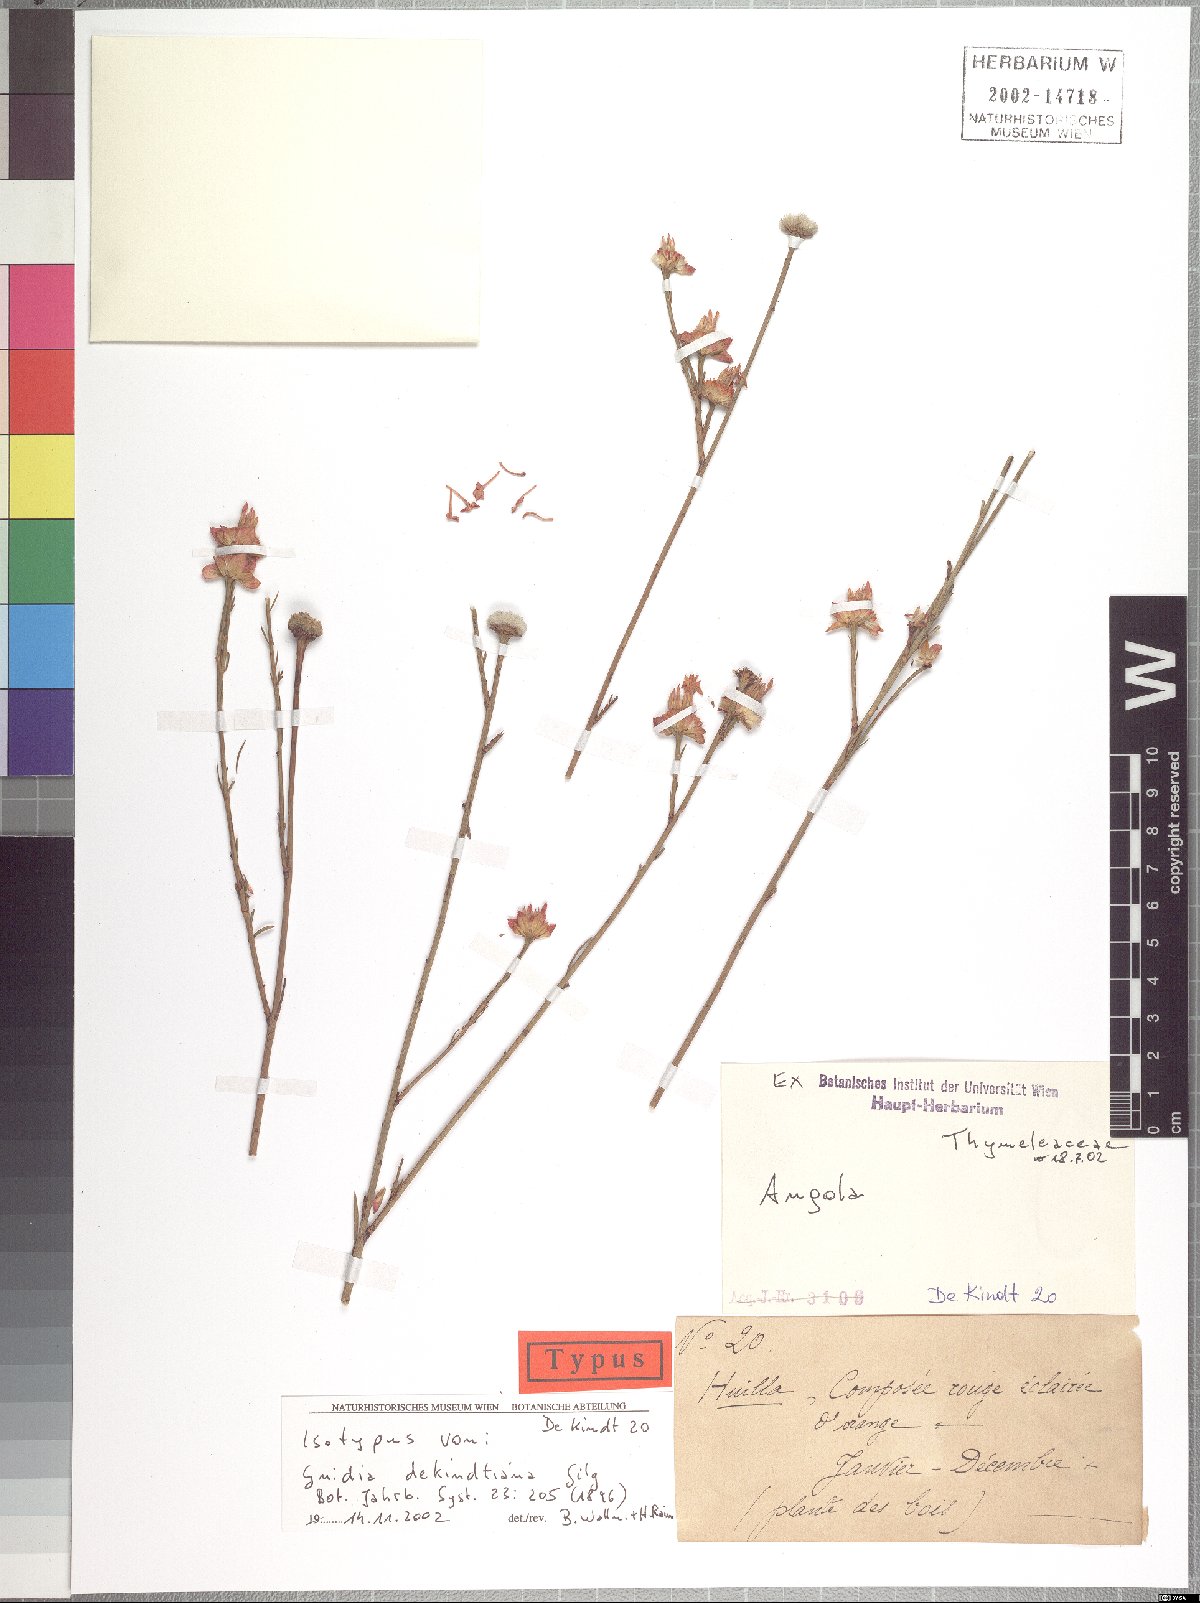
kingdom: Plantae
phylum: Tracheophyta
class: Magnoliopsida
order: Malvales
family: Thymelaeaceae
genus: Gnidia
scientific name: Gnidia dekindtiana
